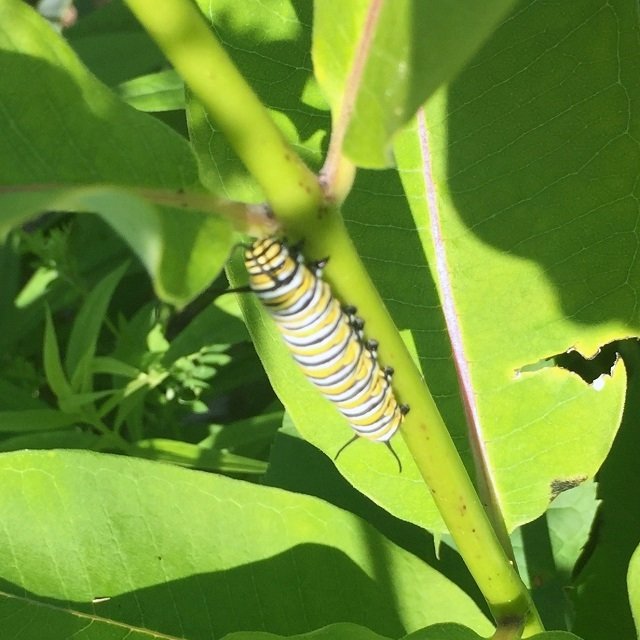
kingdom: Animalia
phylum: Arthropoda
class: Insecta
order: Lepidoptera
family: Nymphalidae
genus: Danaus
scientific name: Danaus plexippus
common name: Monarch
